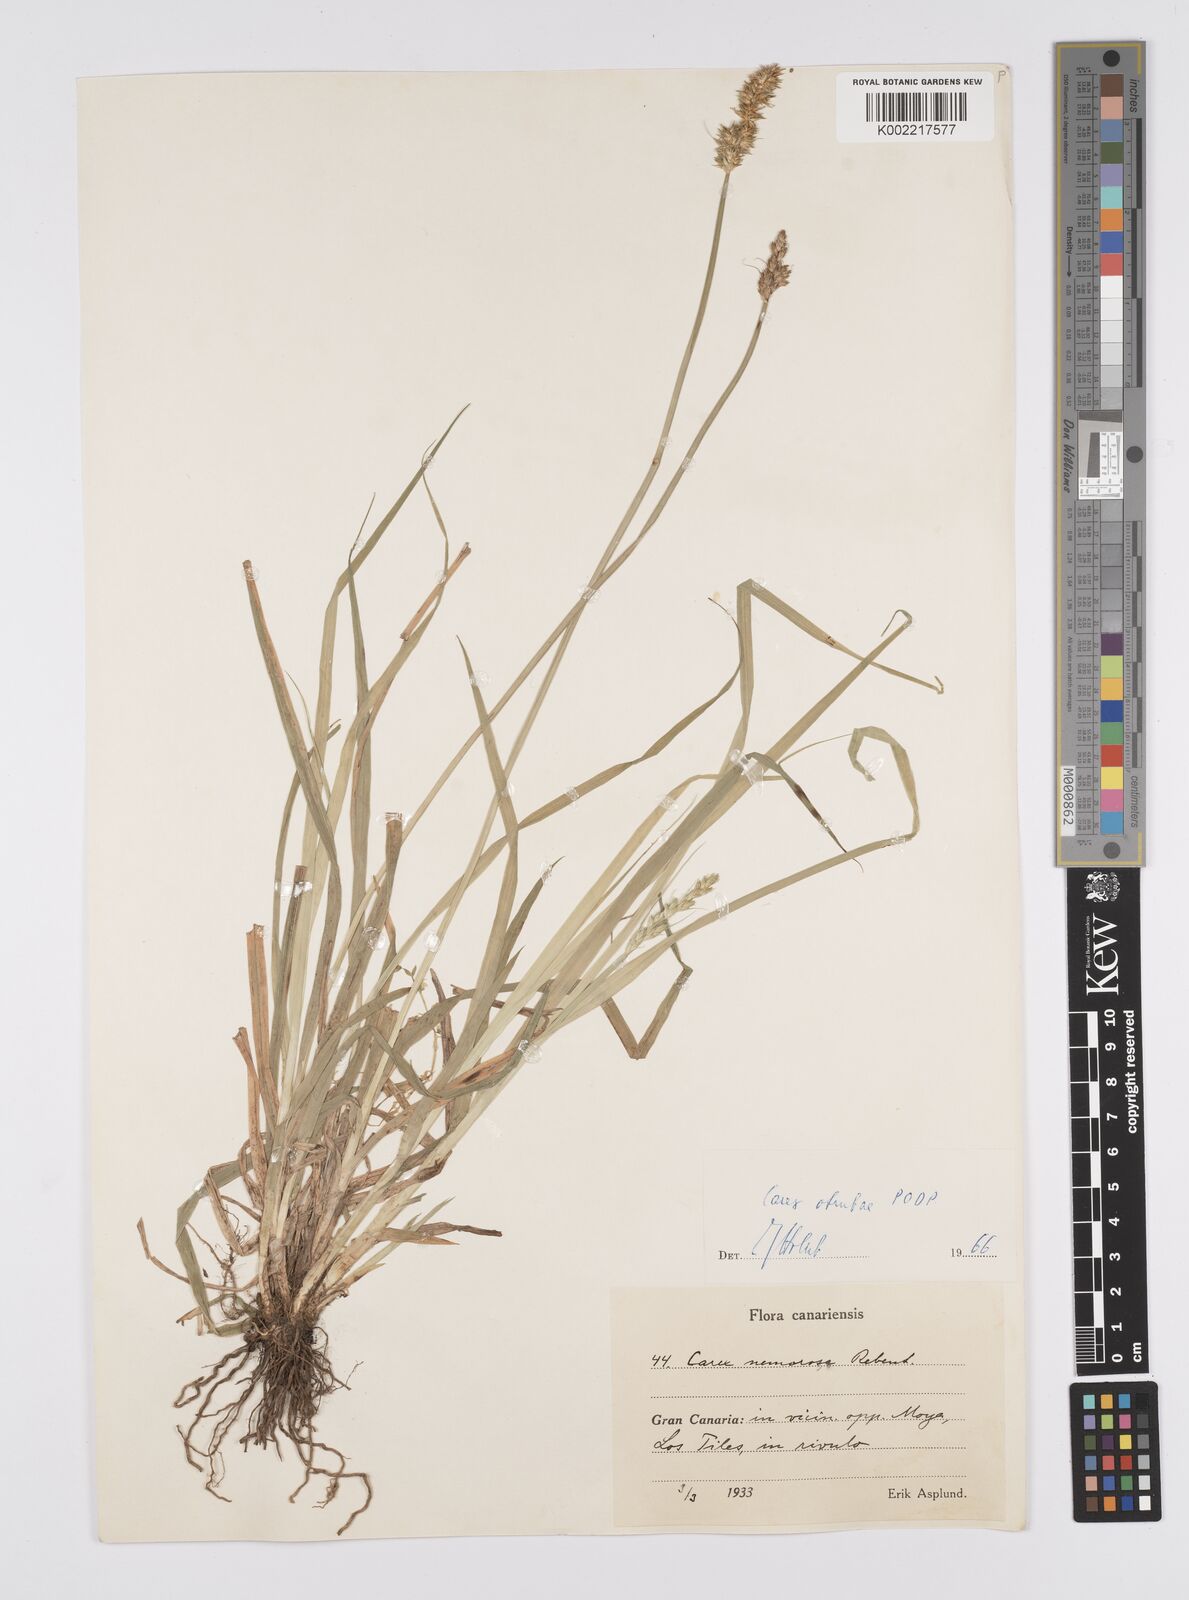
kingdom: Plantae
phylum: Tracheophyta
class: Liliopsida
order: Poales
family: Cyperaceae
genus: Carex
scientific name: Carex vulpina
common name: True fox-sedge
